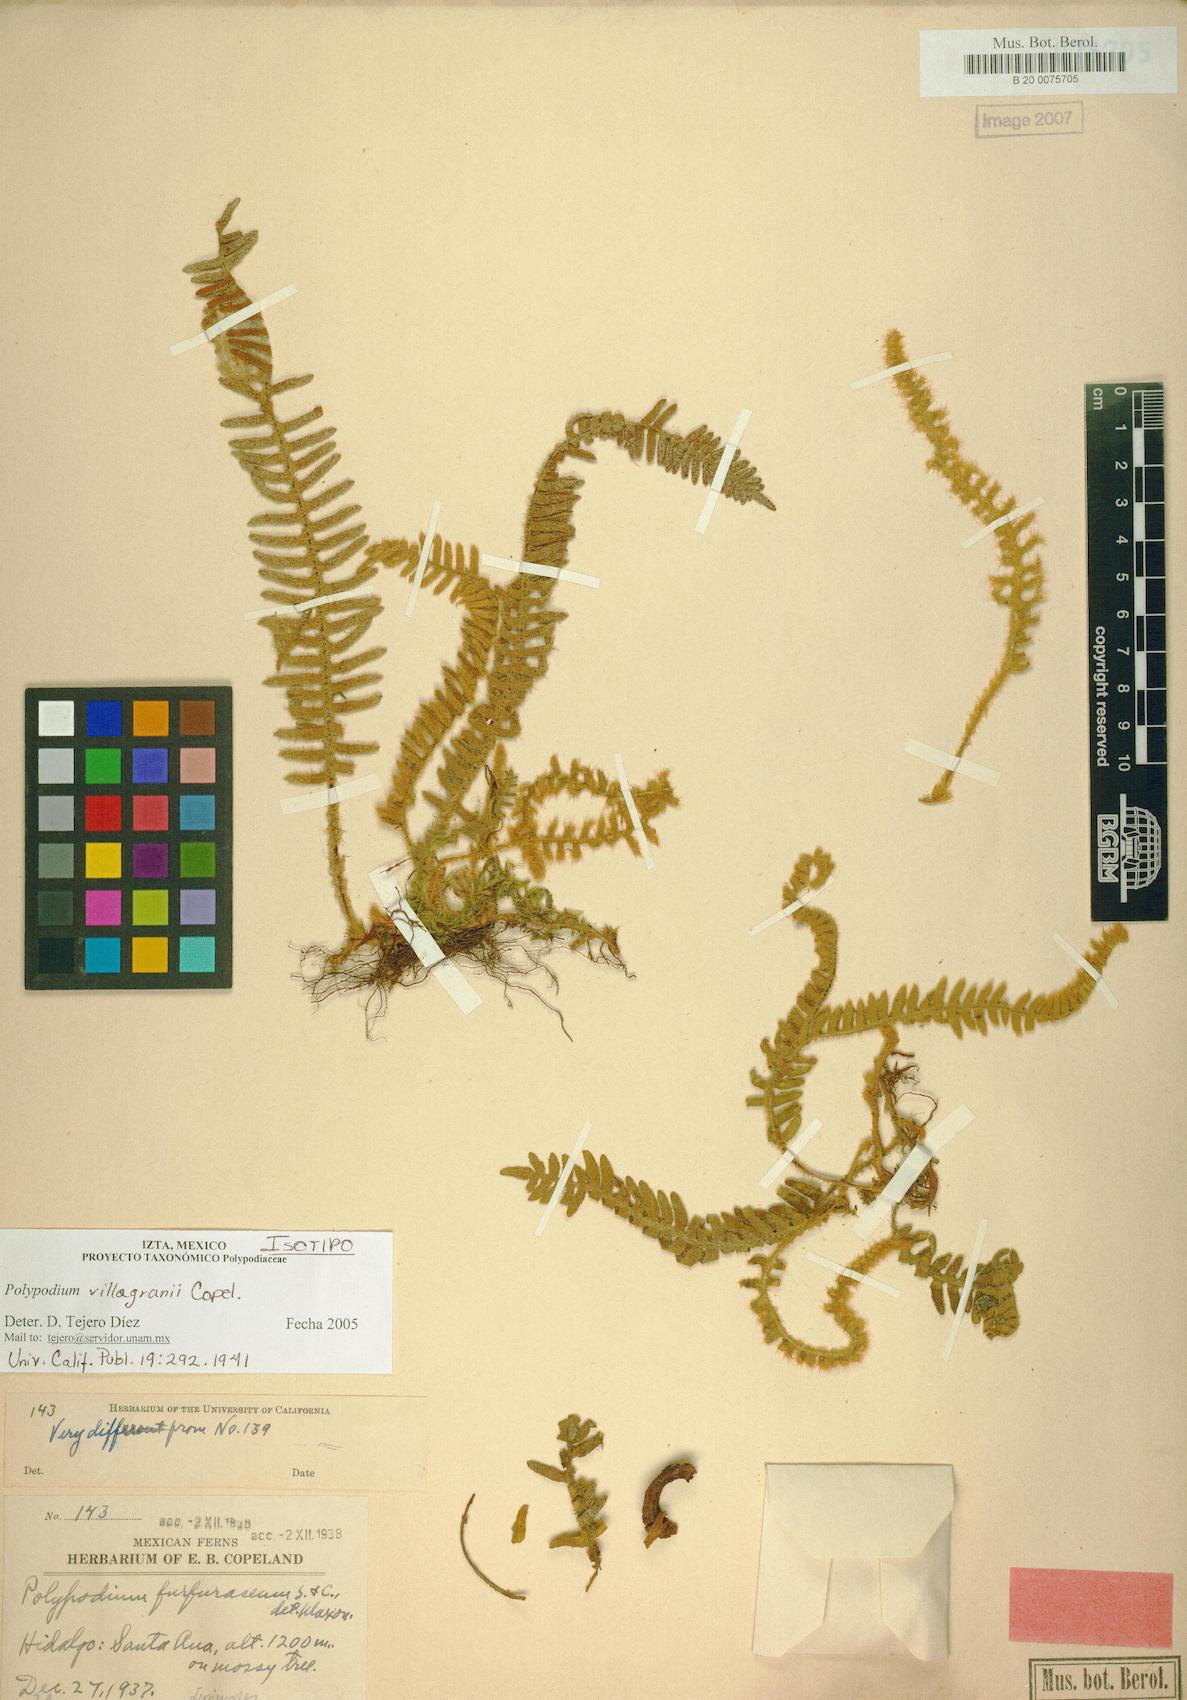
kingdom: Plantae
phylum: Tracheophyta
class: Polypodiopsida
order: Polypodiales
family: Polypodiaceae
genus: Pleopeltis
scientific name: Pleopeltis villagranii
